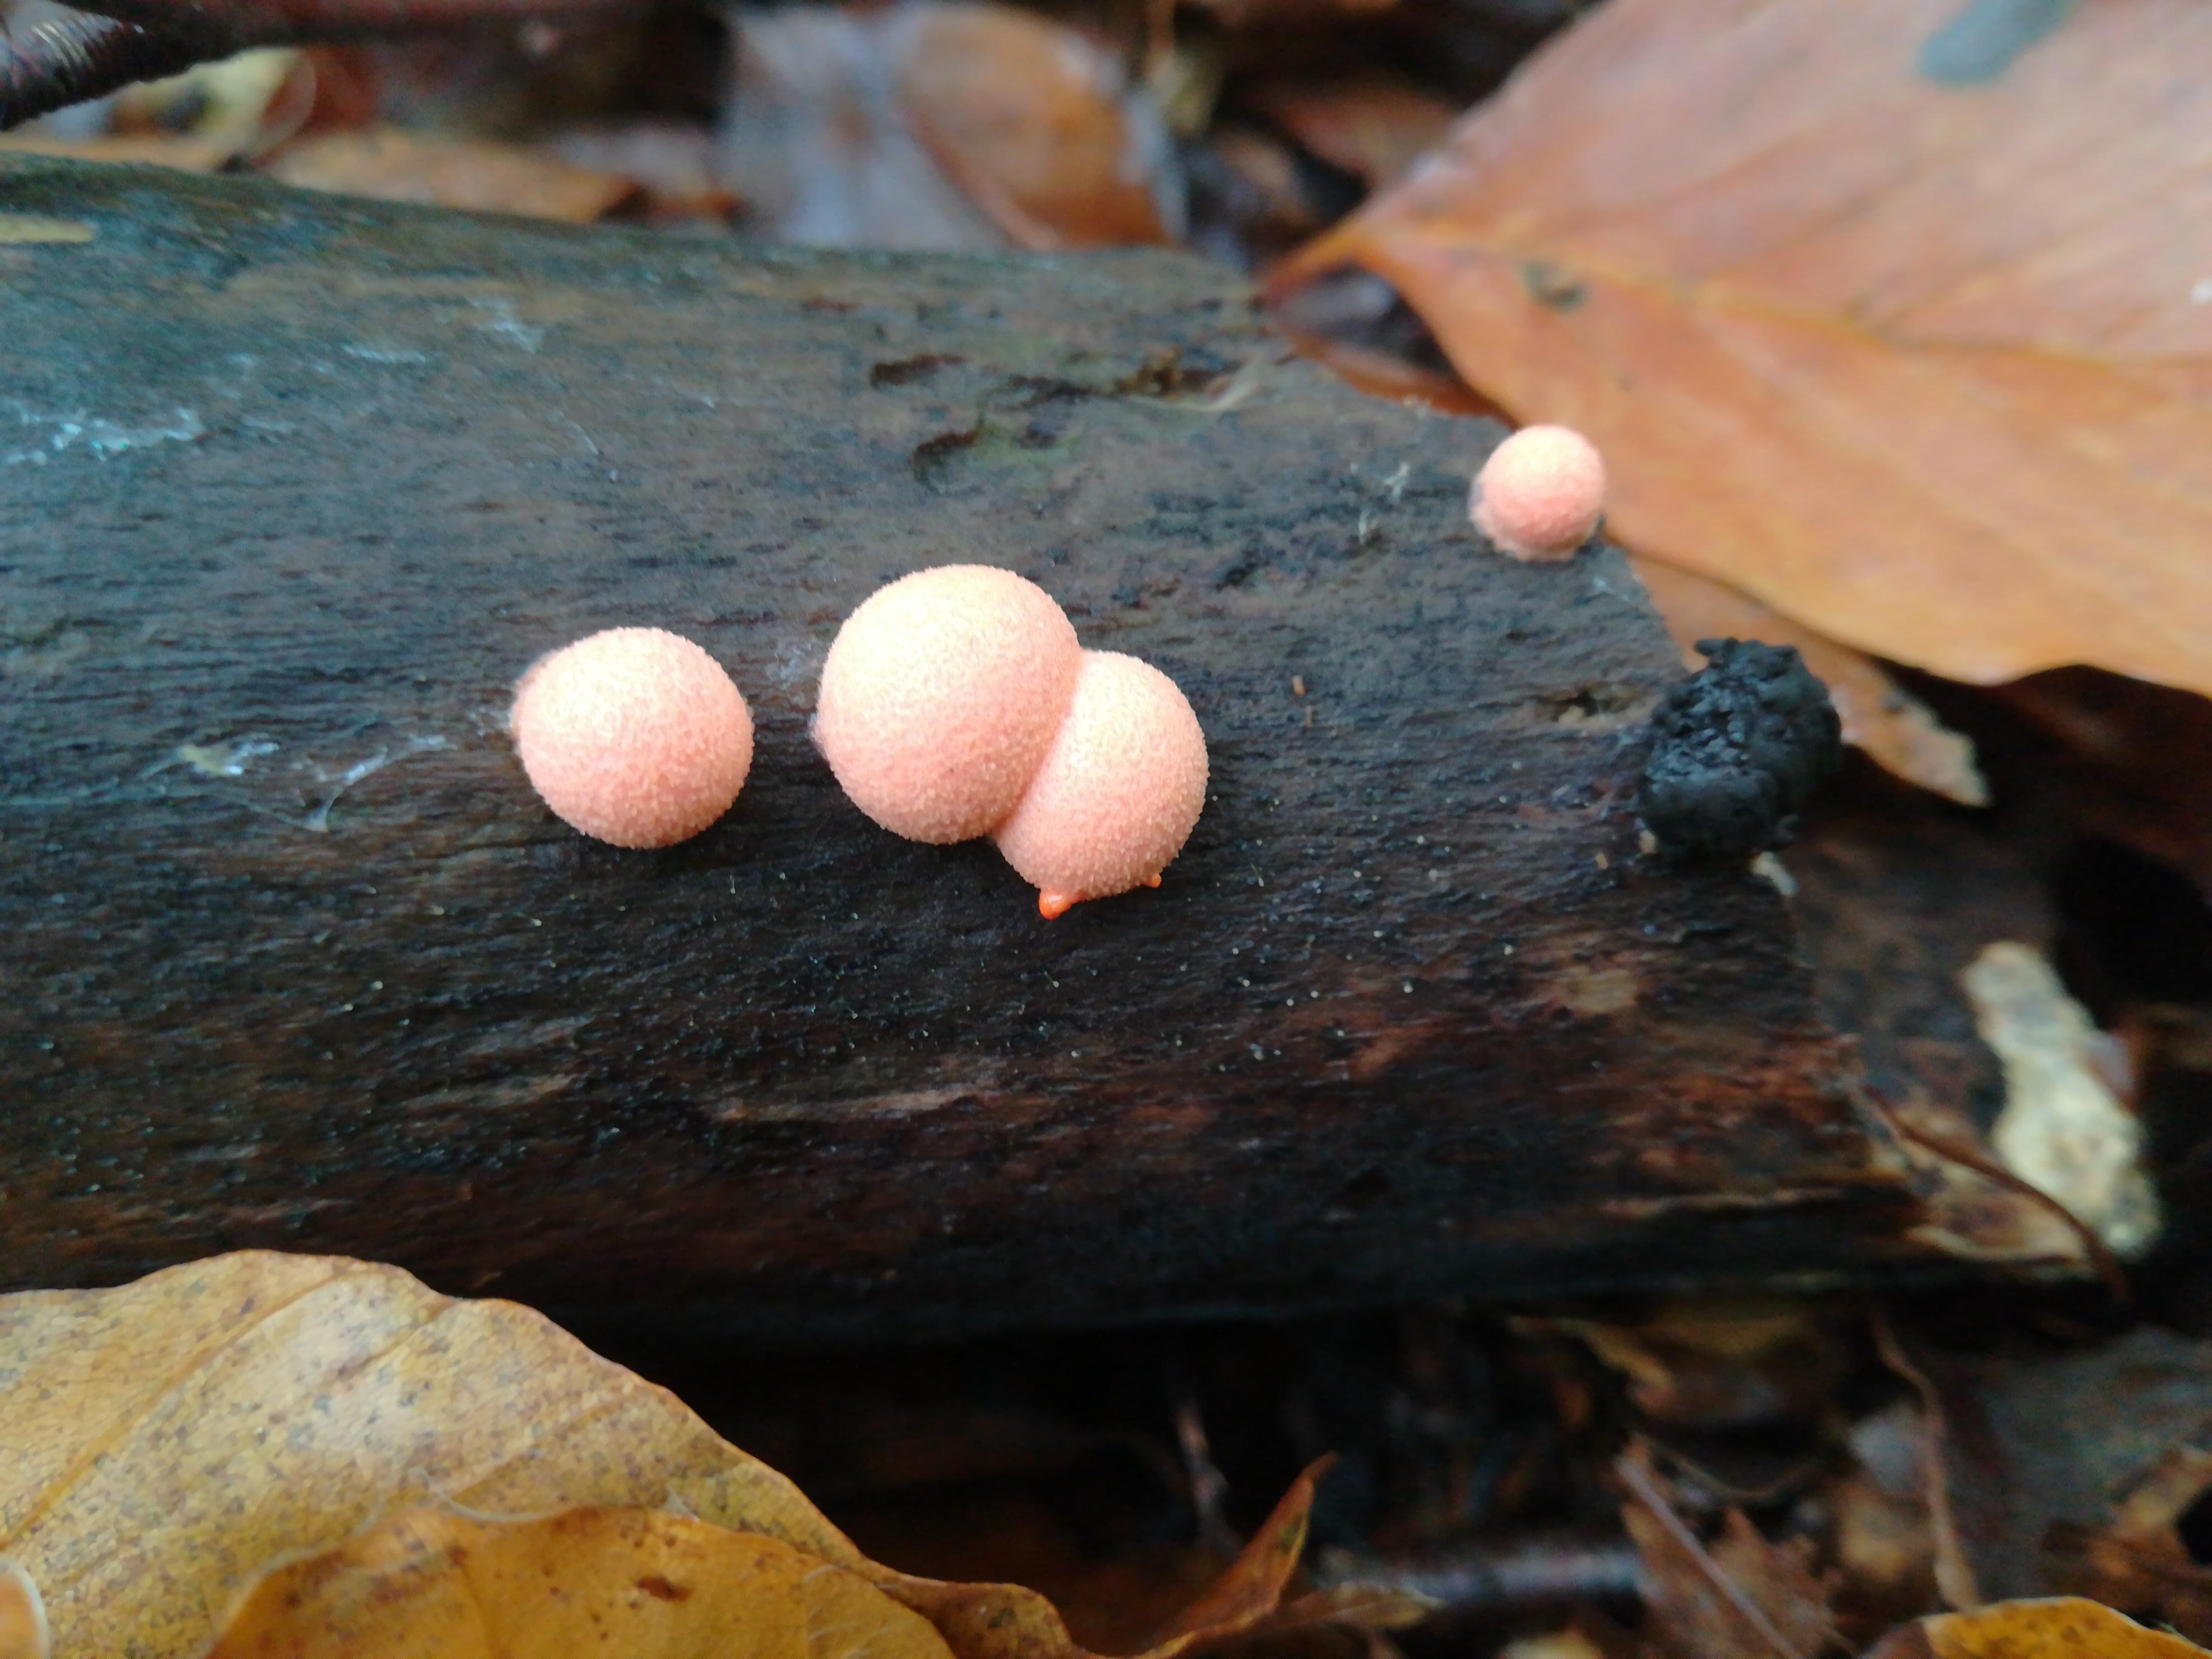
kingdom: Protozoa
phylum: Mycetozoa
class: Myxomycetes
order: Cribrariales
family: Tubiferaceae
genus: Lycogala
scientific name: Lycogala epidendrum
